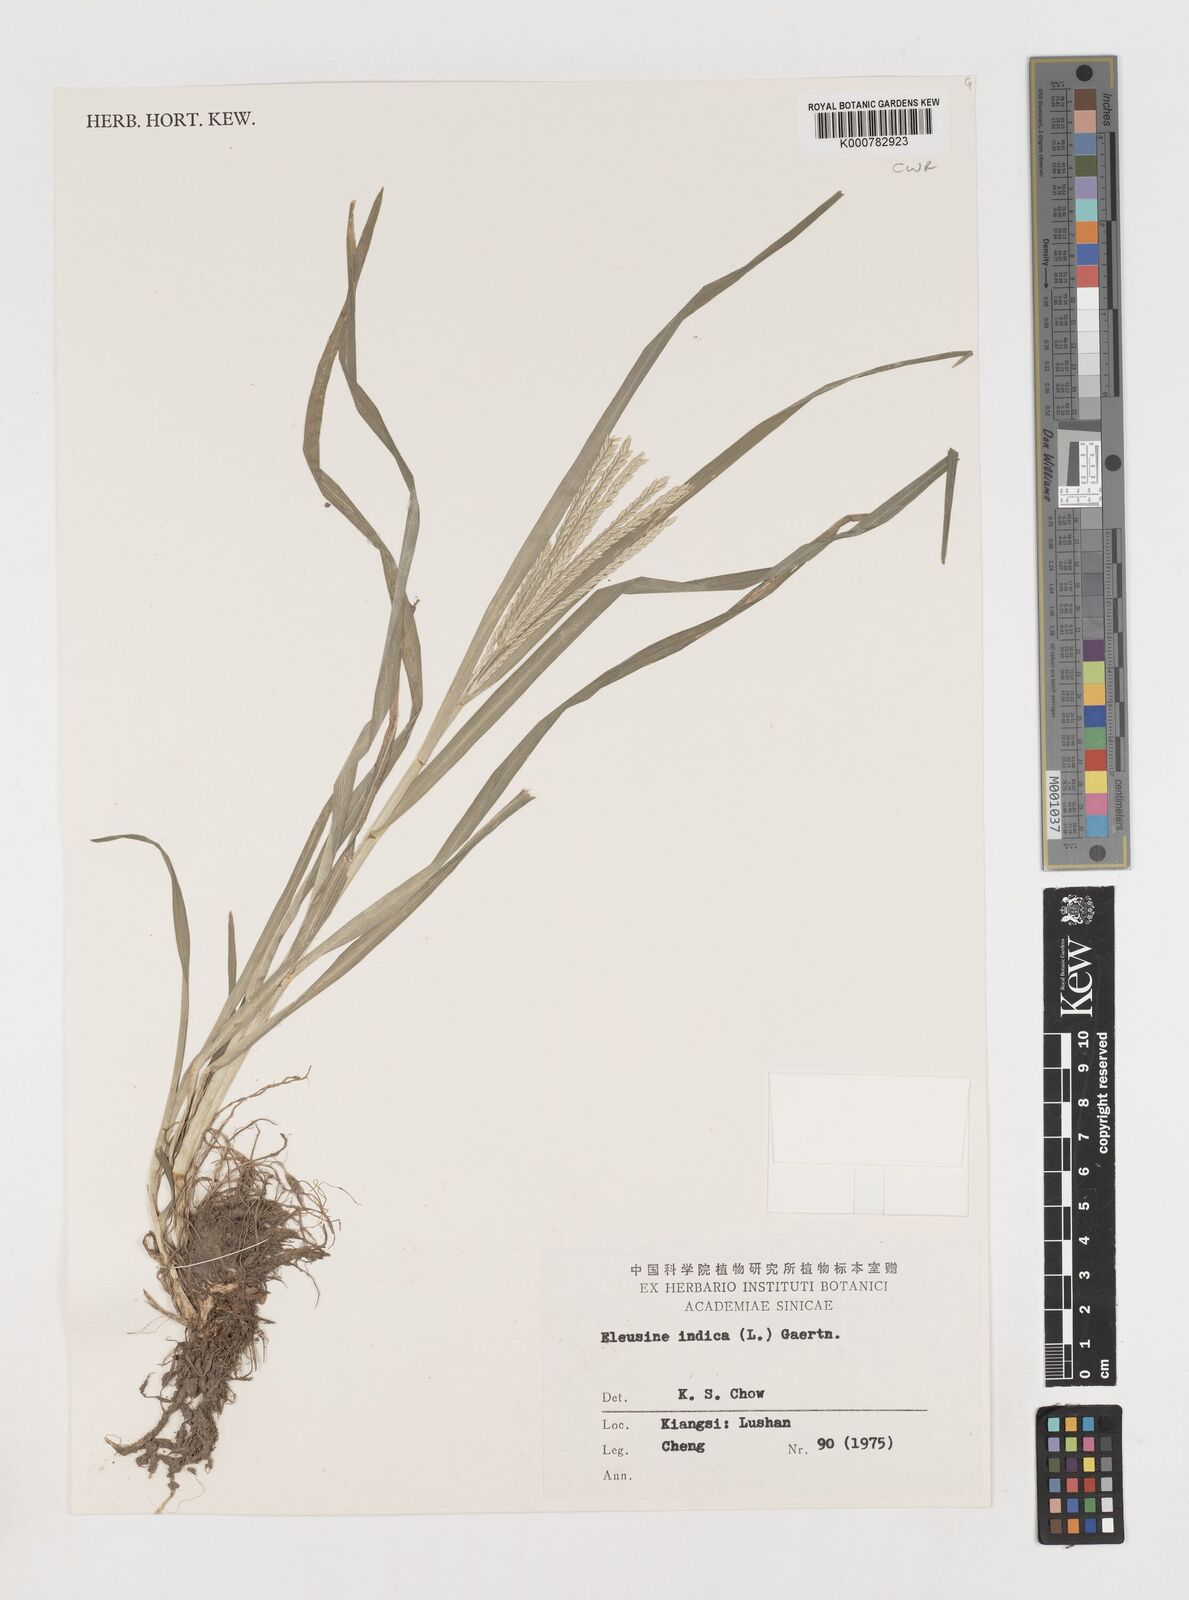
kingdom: Plantae
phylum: Tracheophyta
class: Liliopsida
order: Poales
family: Poaceae
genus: Eleusine
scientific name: Eleusine indica
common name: Yard-grass
